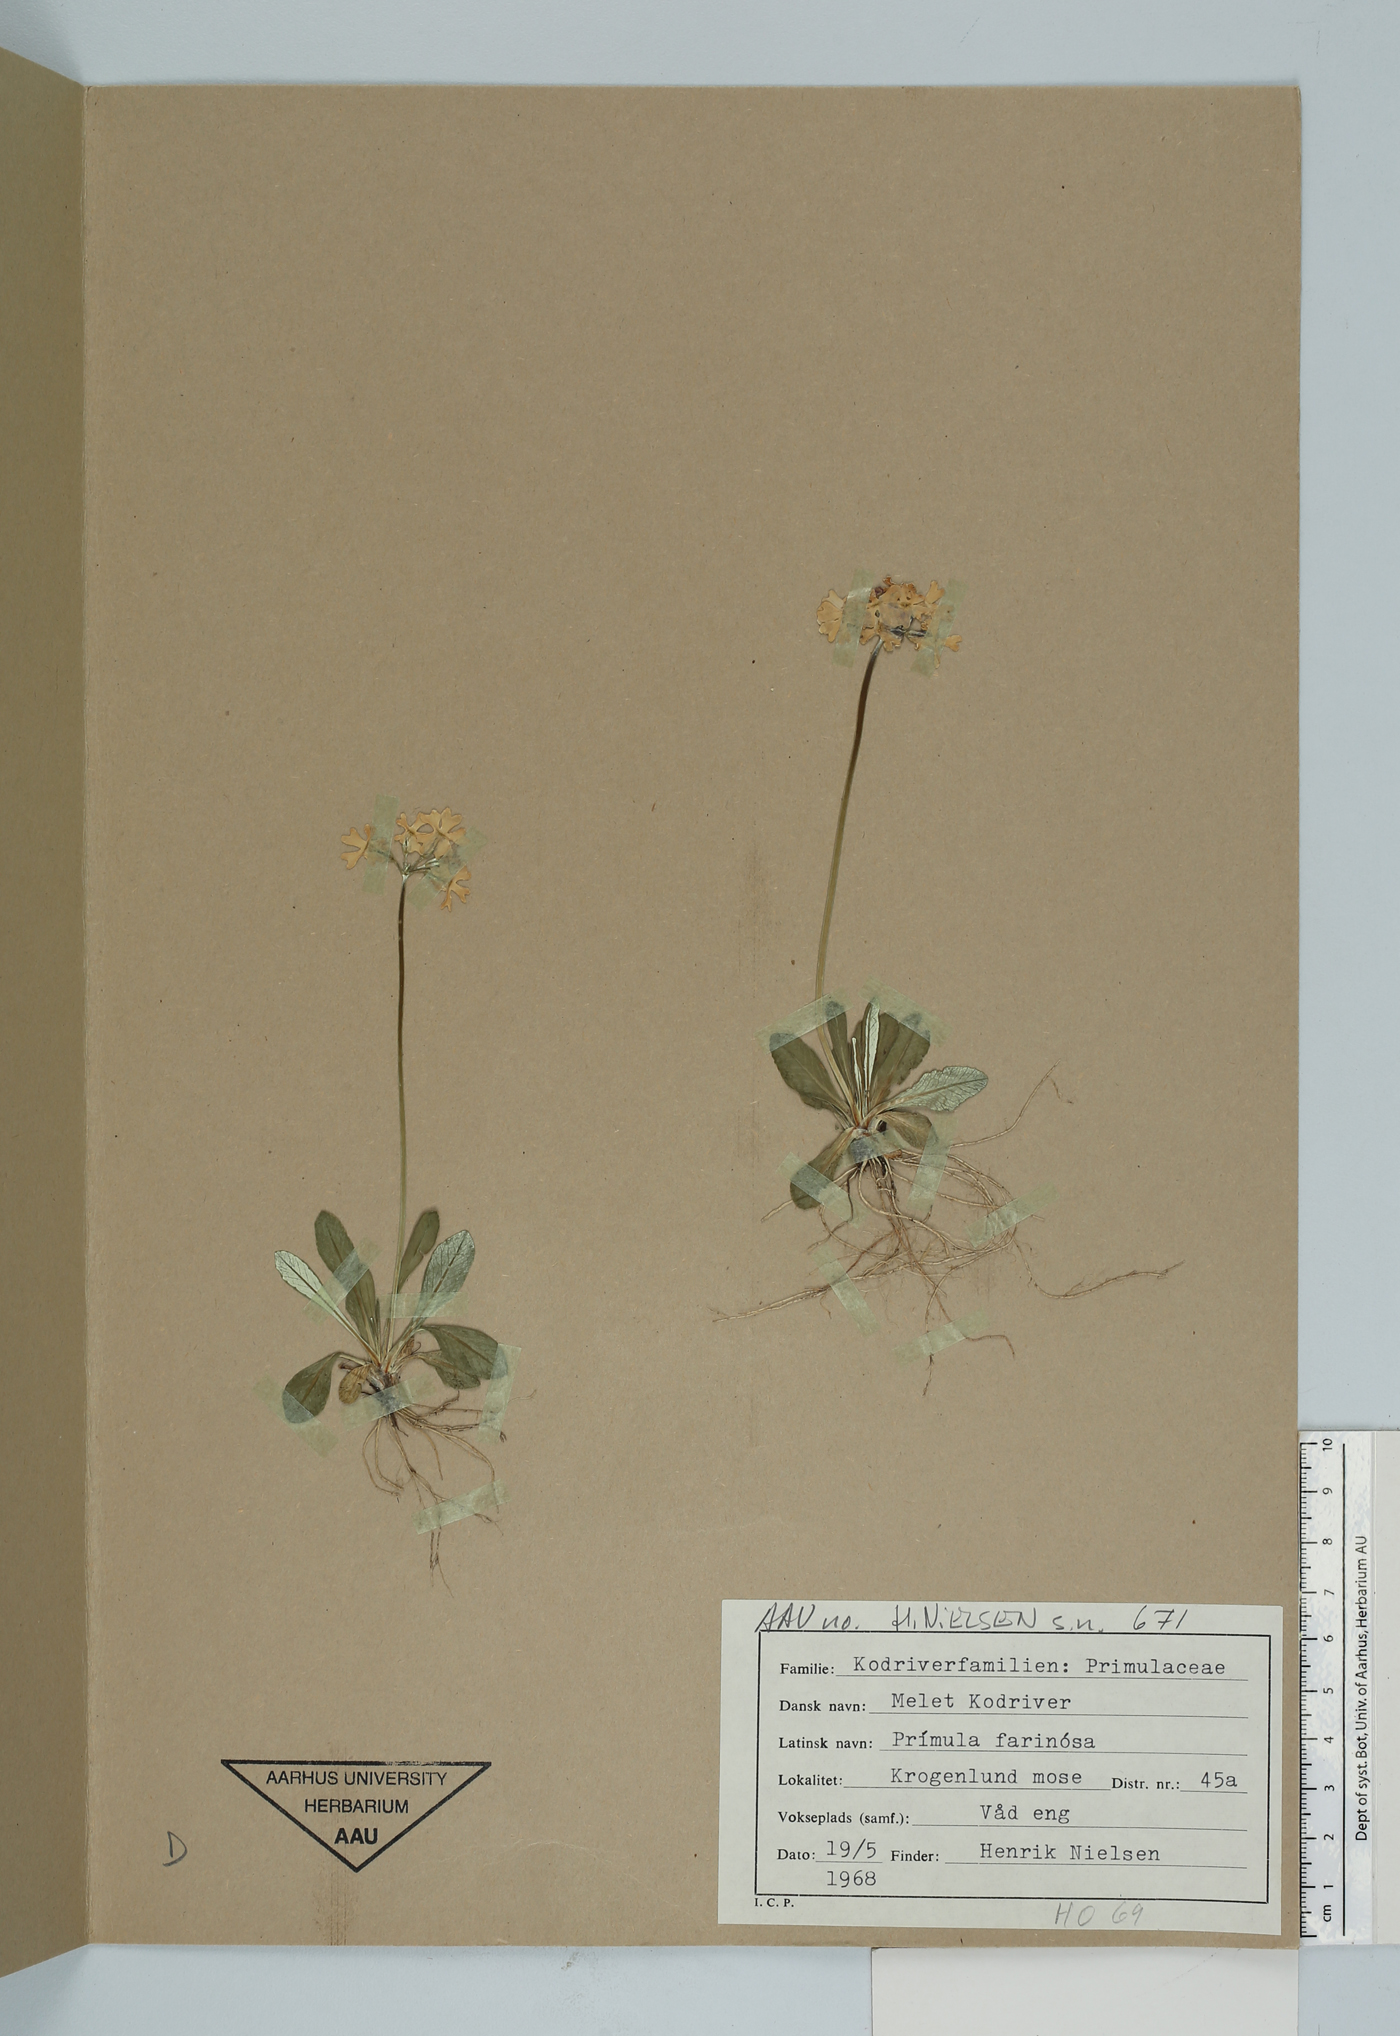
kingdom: Plantae
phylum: Tracheophyta
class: Magnoliopsida
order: Ericales
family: Primulaceae
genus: Primula
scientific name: Primula farinosa
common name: Bird's-eye primrose
